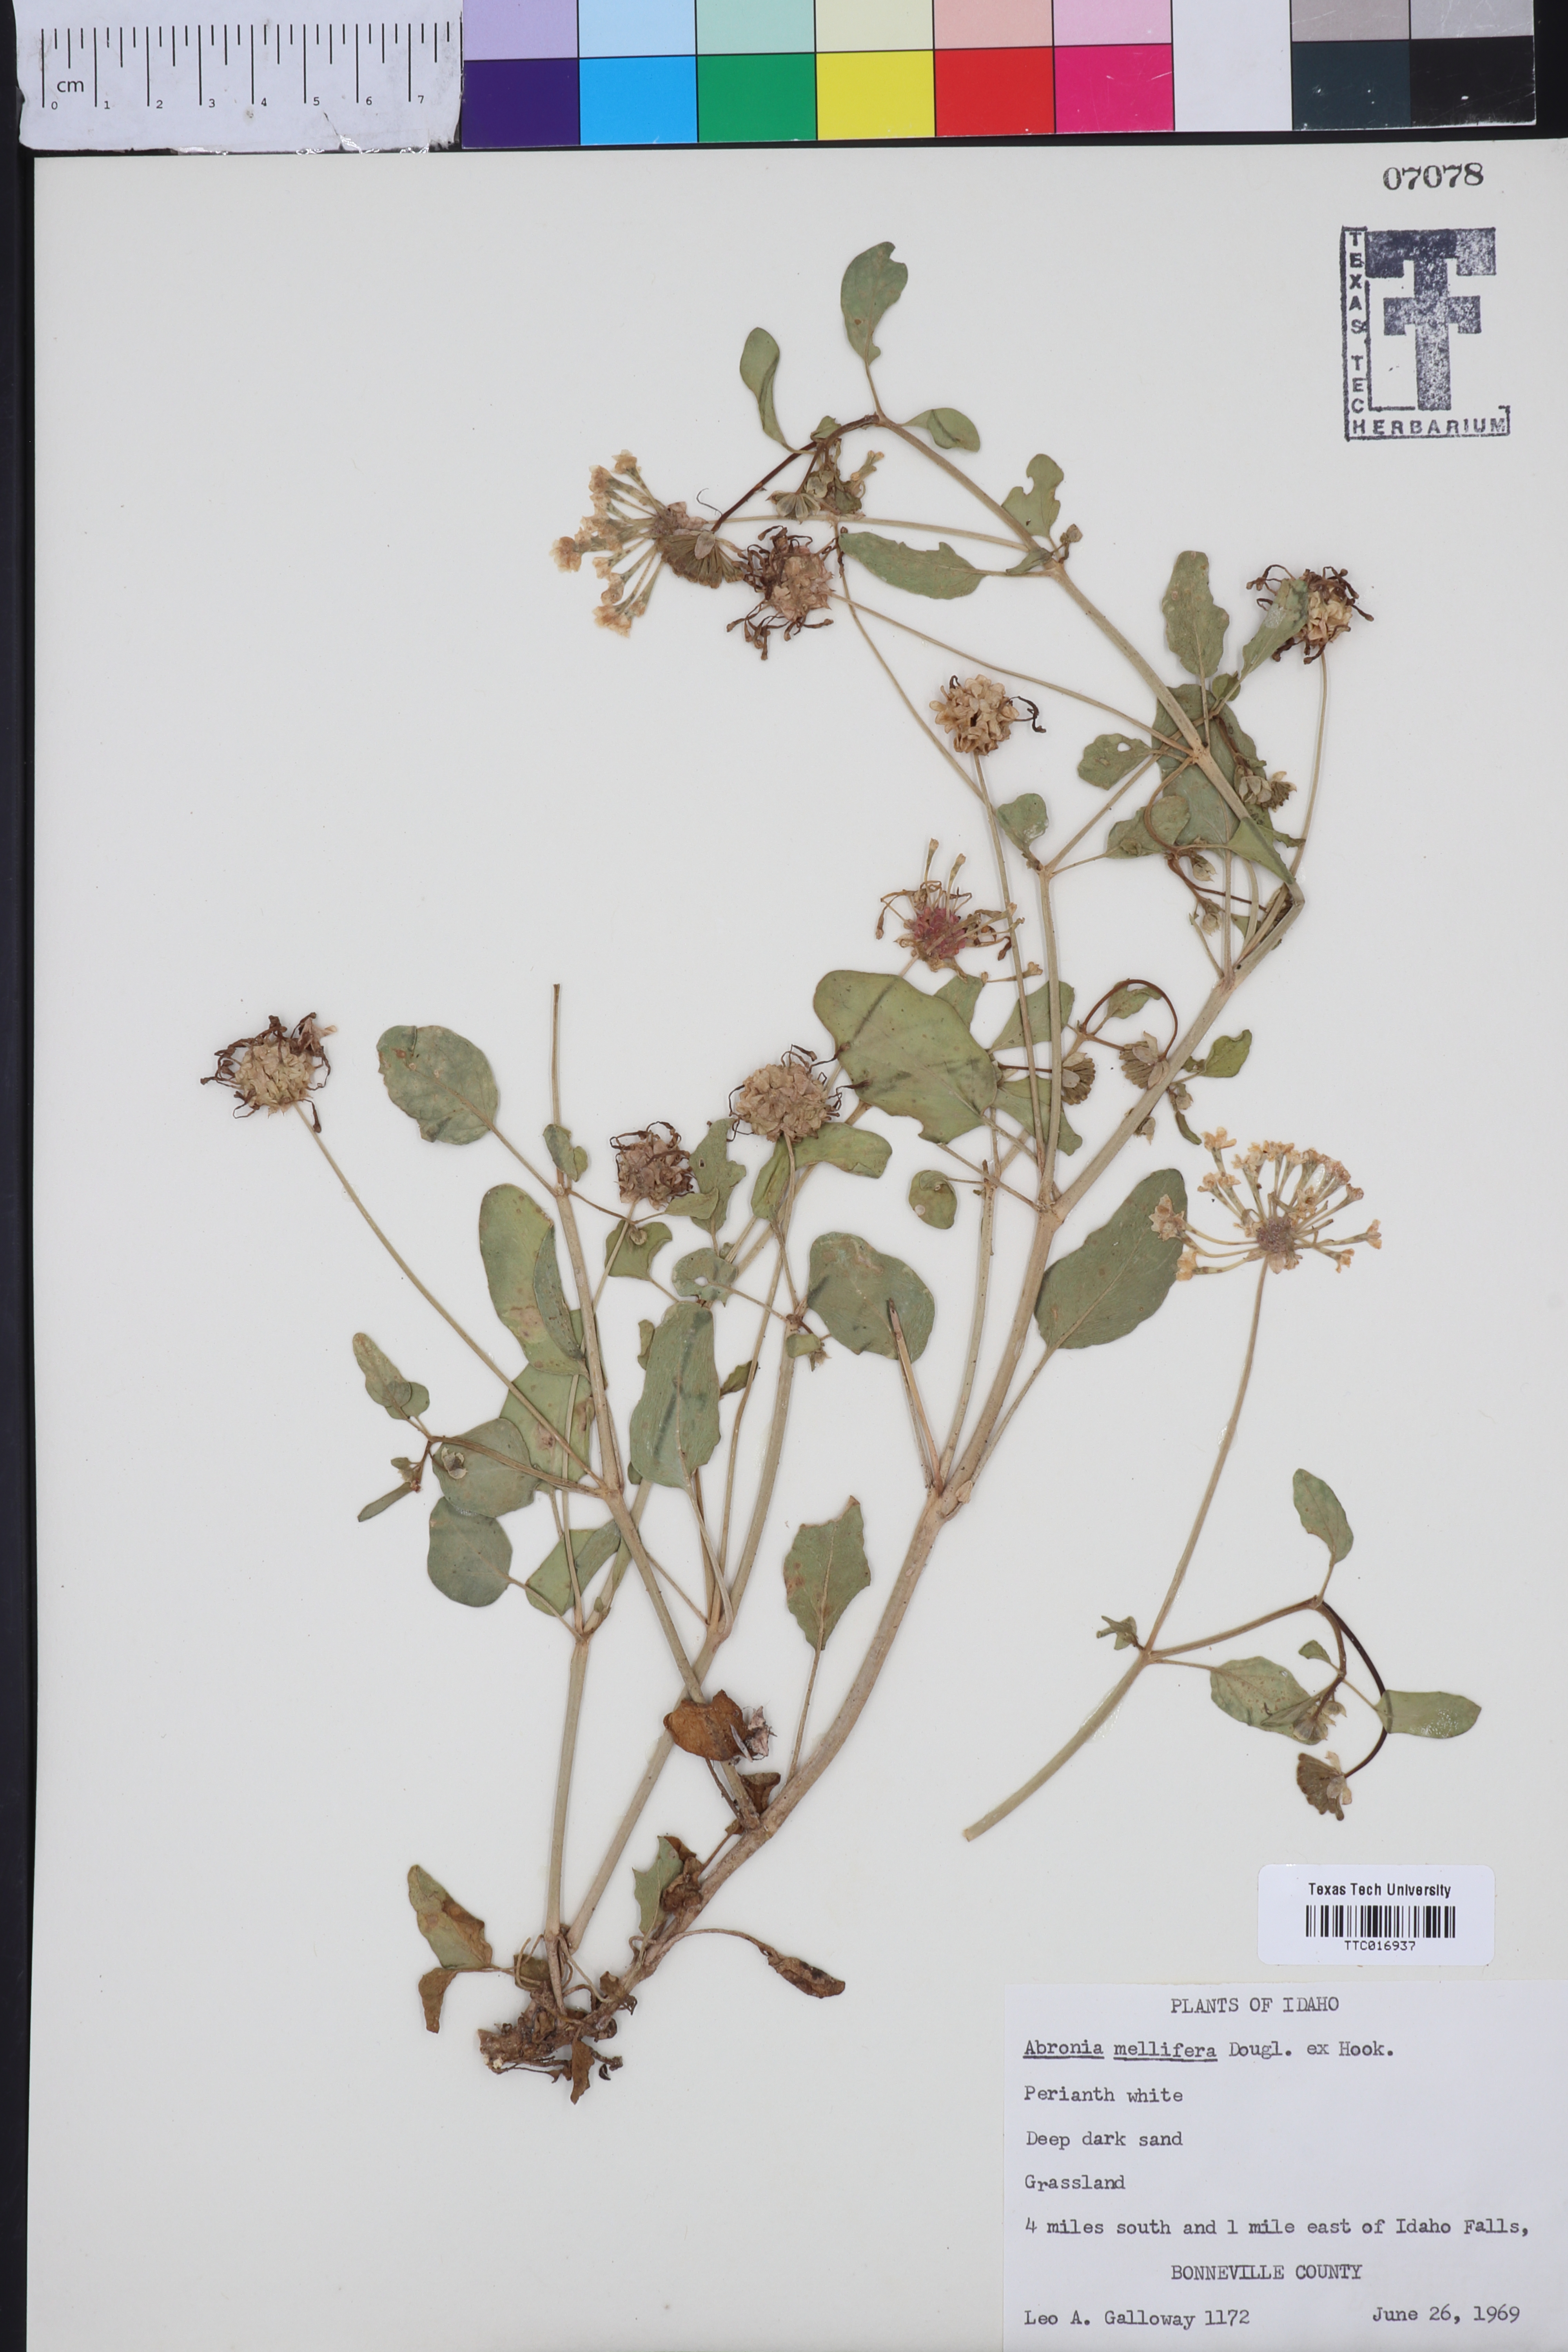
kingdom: Plantae
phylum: Tracheophyta
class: Magnoliopsida
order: Caryophyllales
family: Nyctaginaceae
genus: Abronia
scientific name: Abronia mellifera
